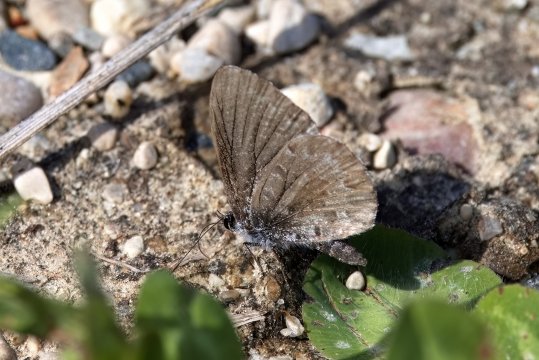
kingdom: Animalia
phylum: Arthropoda
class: Insecta
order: Lepidoptera
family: Lycaenidae
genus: Celastrina
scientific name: Celastrina lucia
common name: Northern Spring Azure
